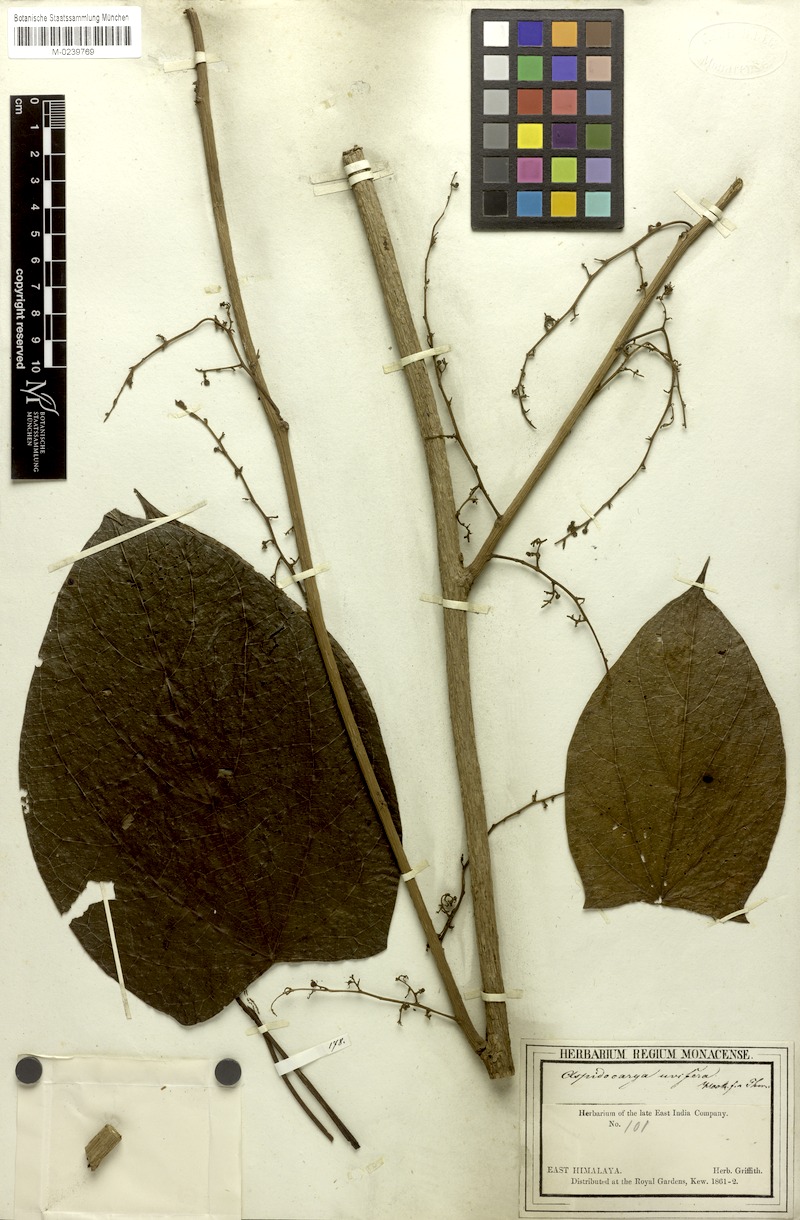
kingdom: Plantae
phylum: Tracheophyta
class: Magnoliopsida
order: Ranunculales
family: Menispermaceae
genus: Aspidocarya
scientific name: Aspidocarya uvifera
